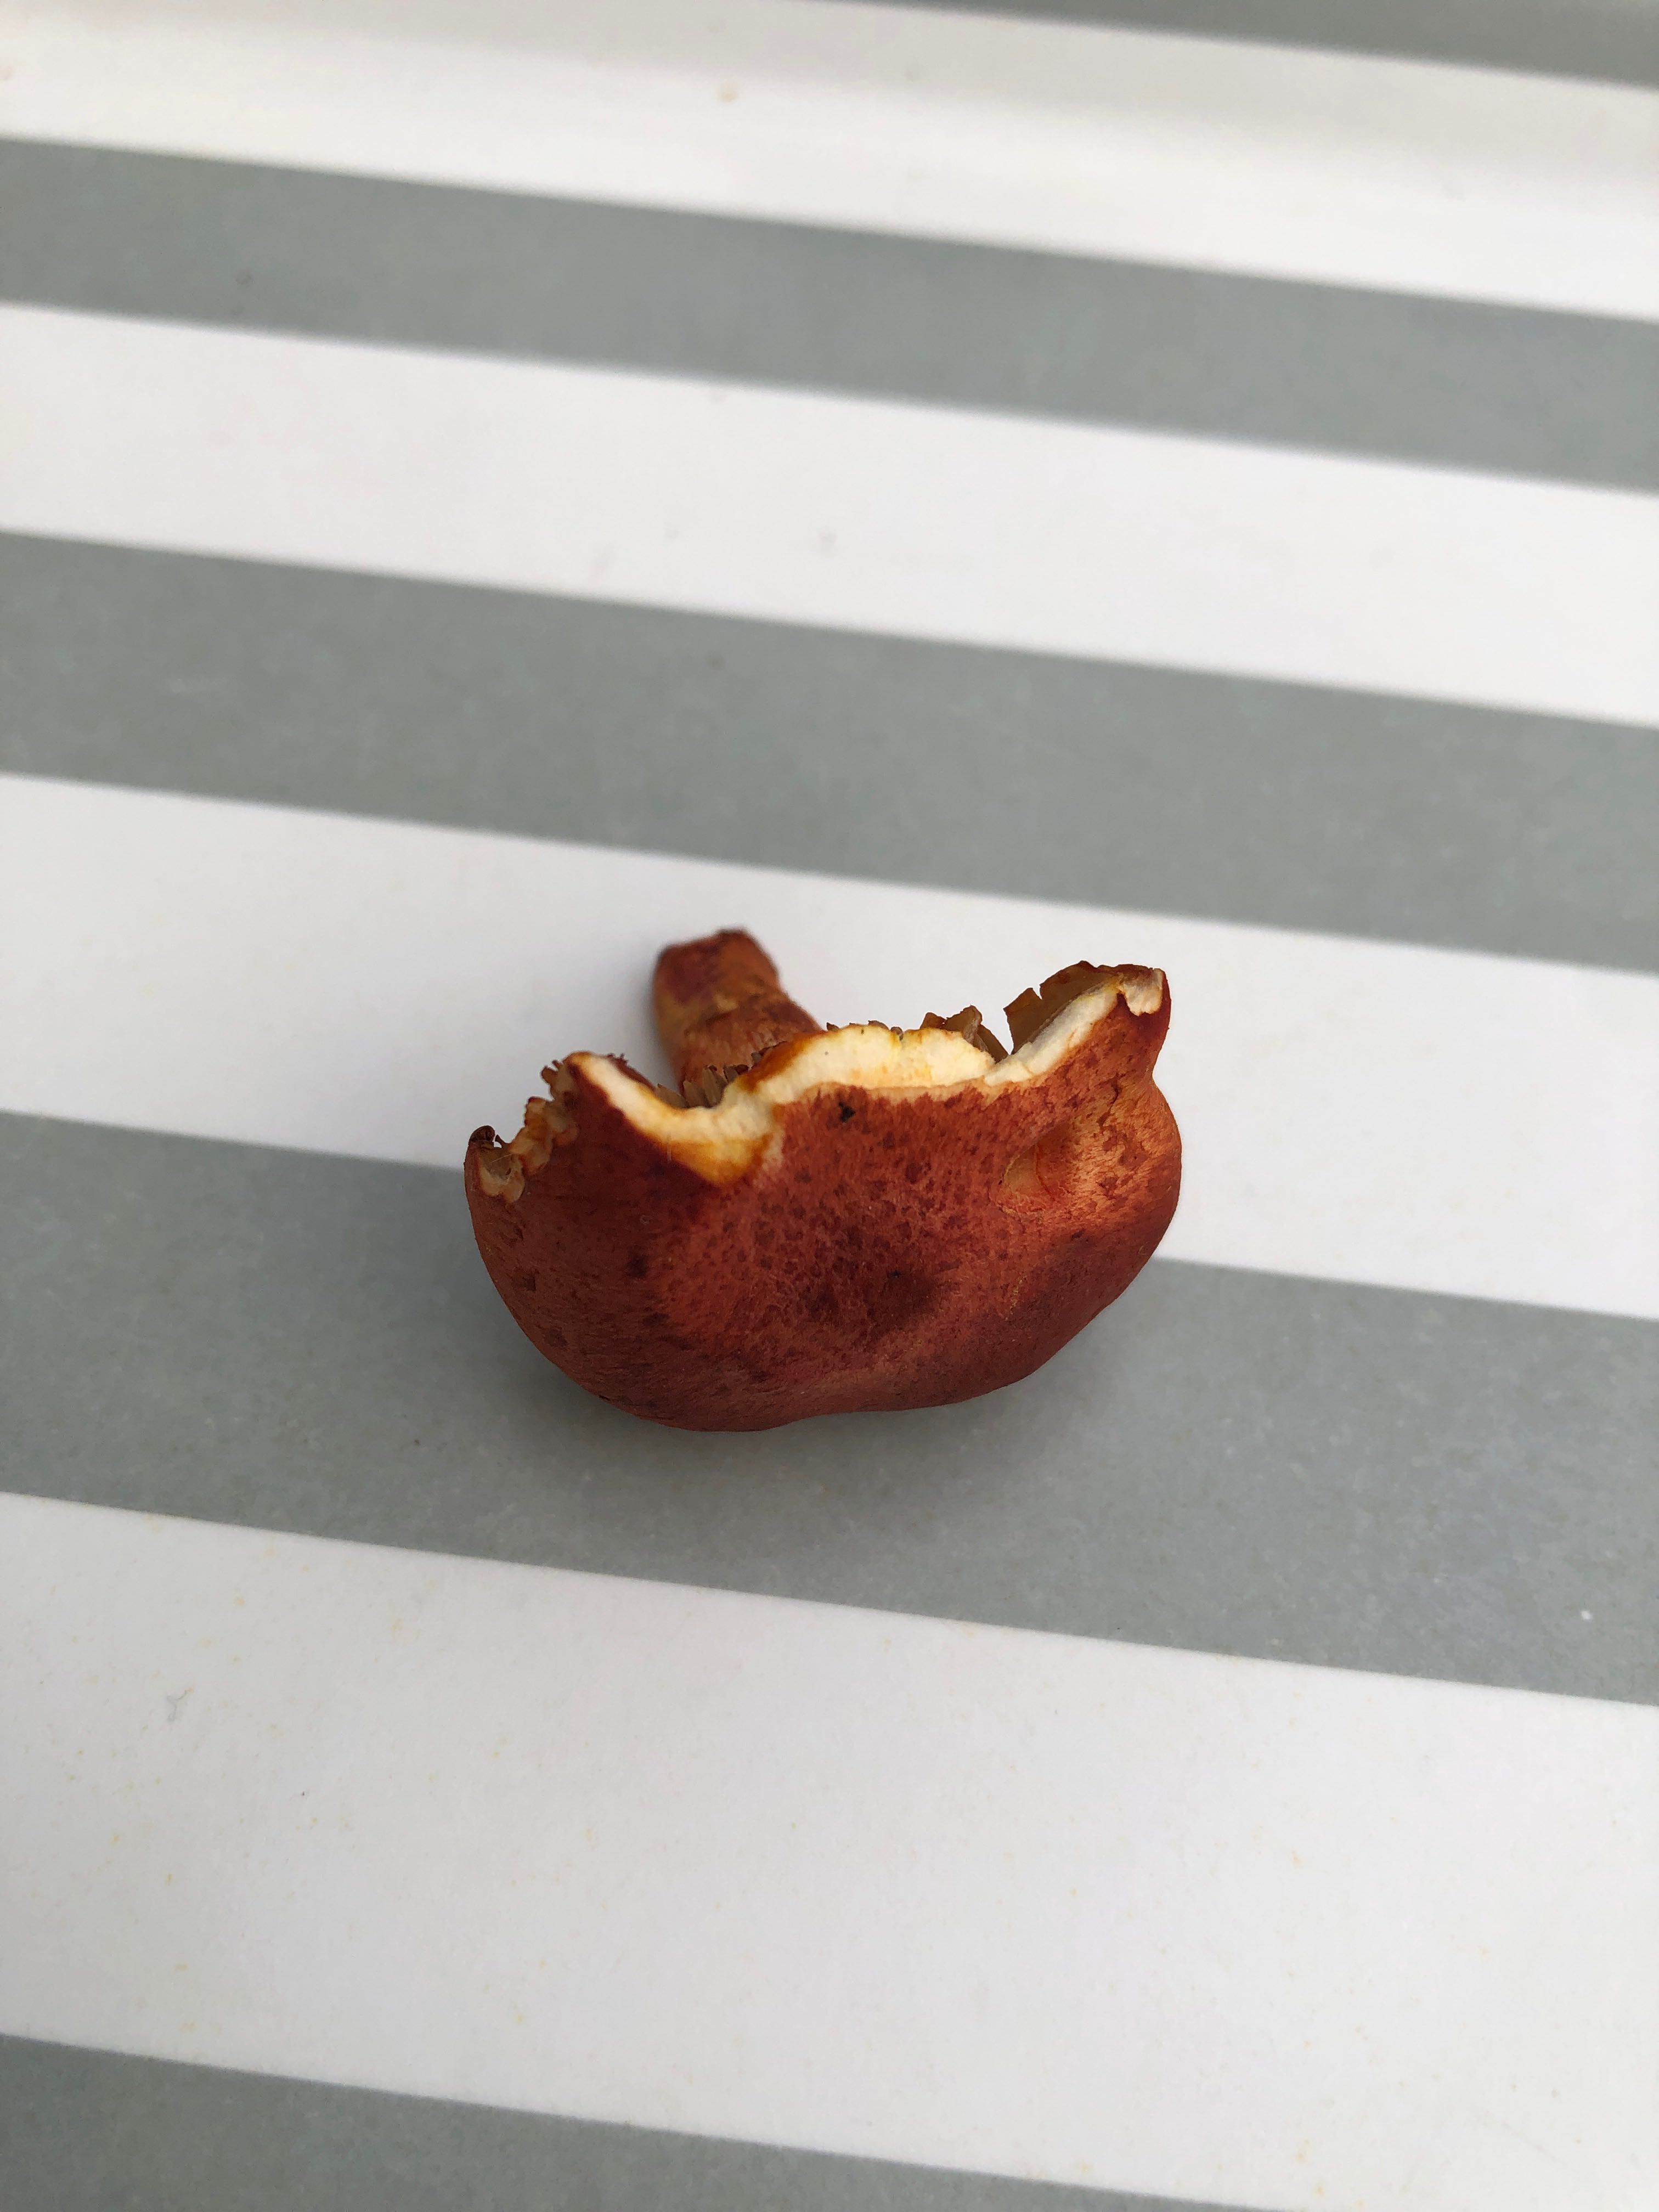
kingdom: Fungi
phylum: Basidiomycota
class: Agaricomycetes
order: Agaricales
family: Cortinariaceae
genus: Cortinarius
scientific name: Cortinarius bolaris
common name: cinnoberskællet slørhat
